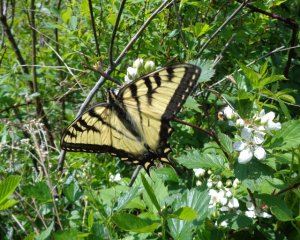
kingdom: Animalia
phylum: Arthropoda
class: Insecta
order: Lepidoptera
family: Papilionidae
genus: Pterourus
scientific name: Pterourus canadensis
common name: Canadian Tiger Swallowtail
